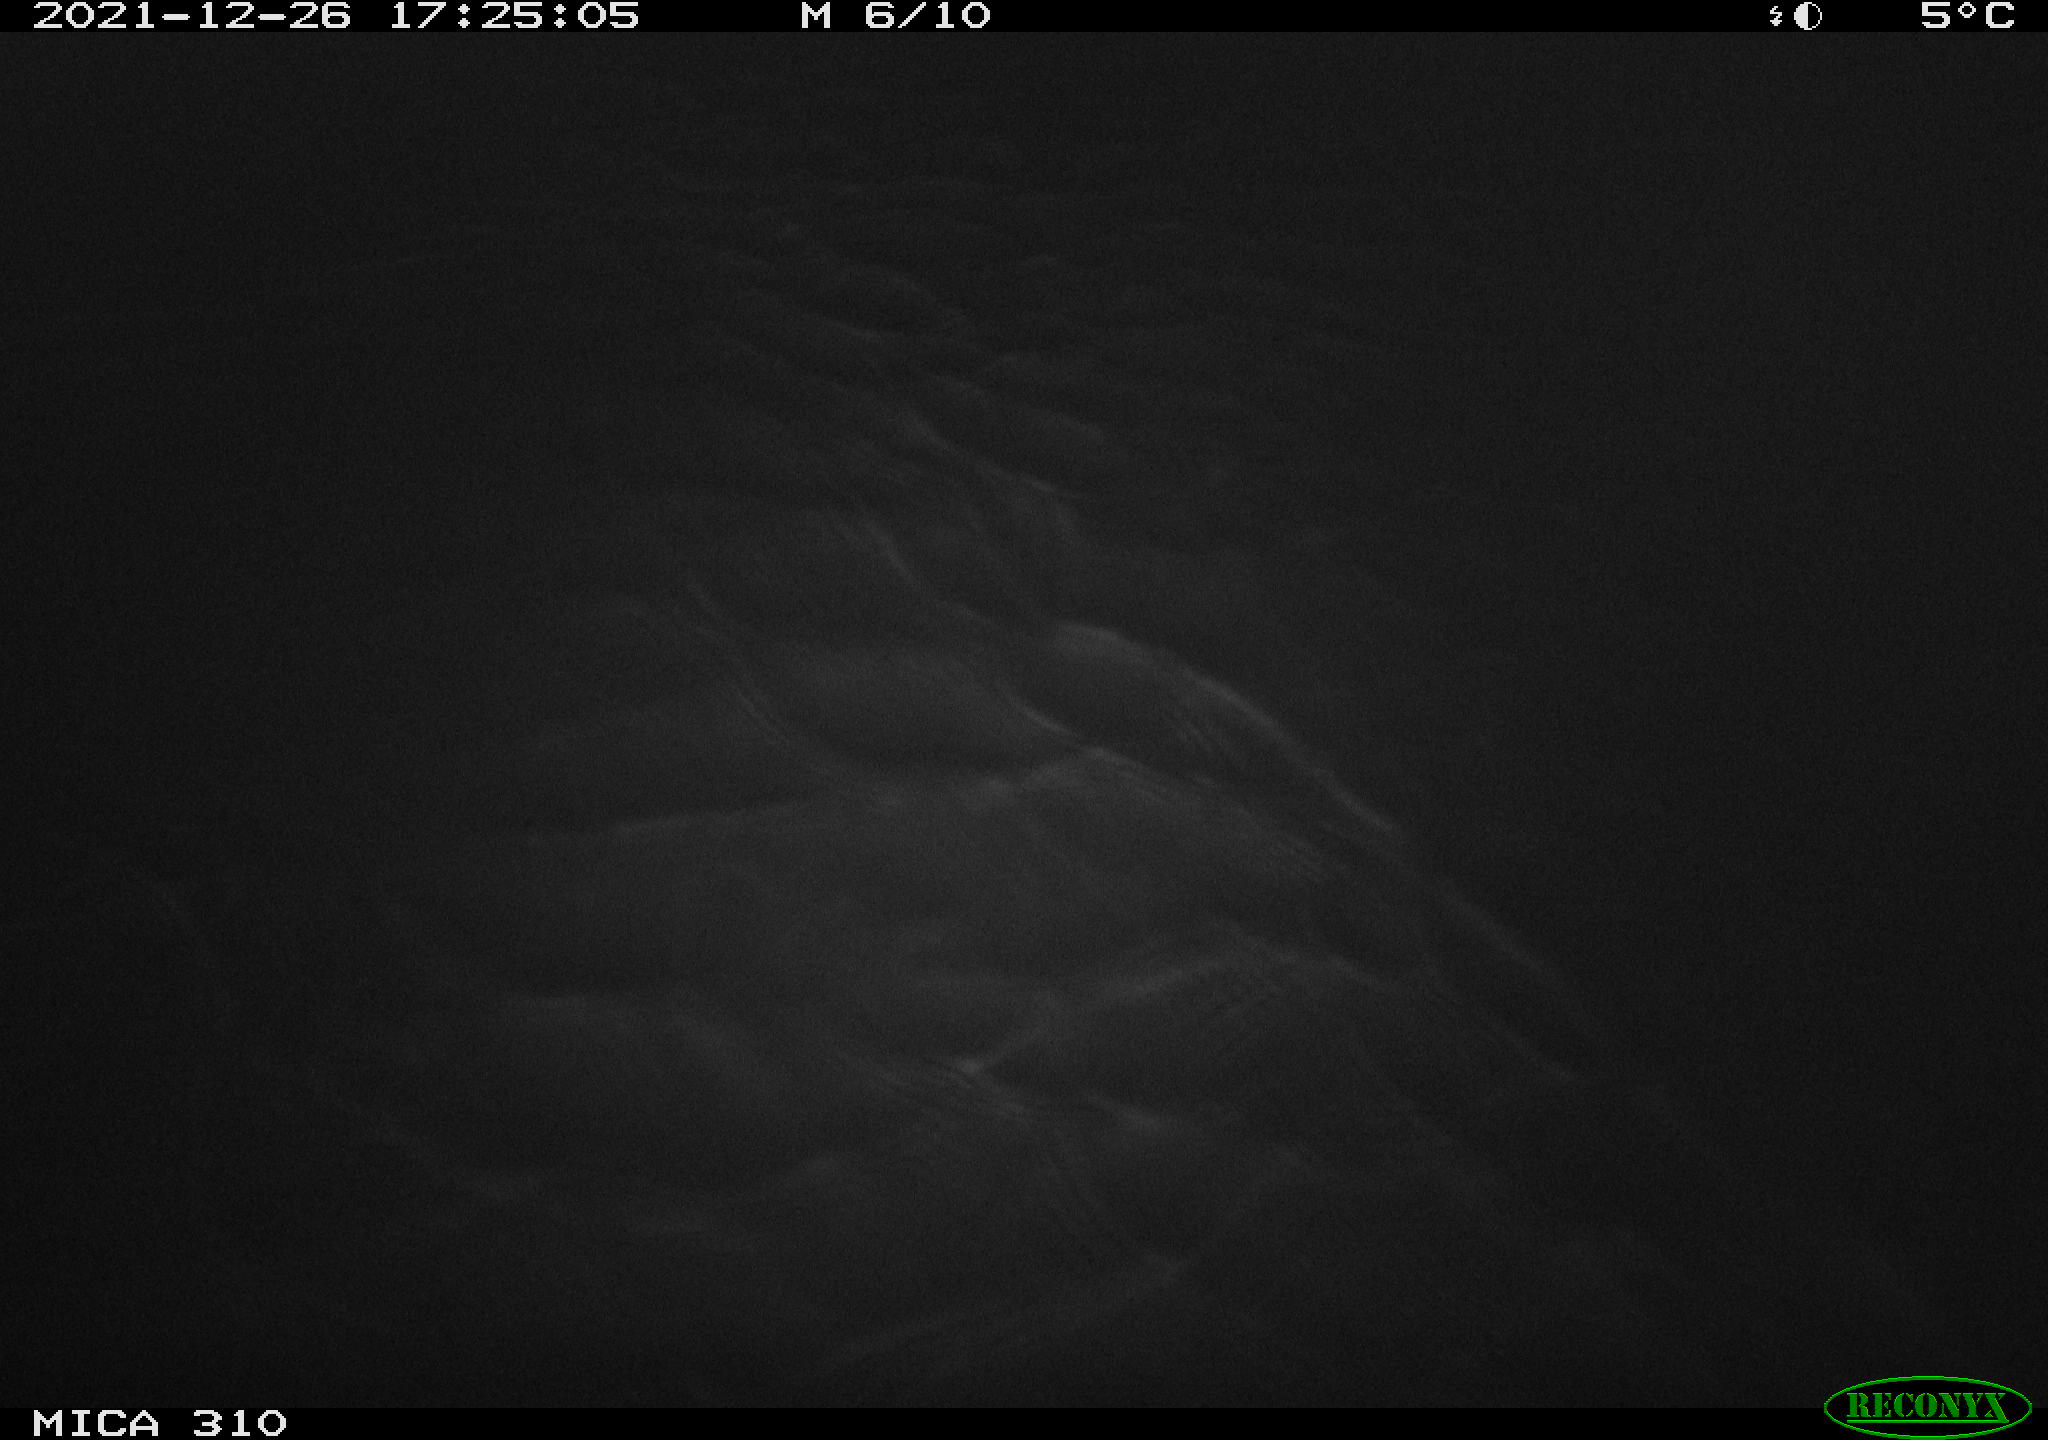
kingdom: Animalia
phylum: Chordata
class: Aves
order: Gruiformes
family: Rallidae
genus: Fulica
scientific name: Fulica atra
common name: Eurasian coot
